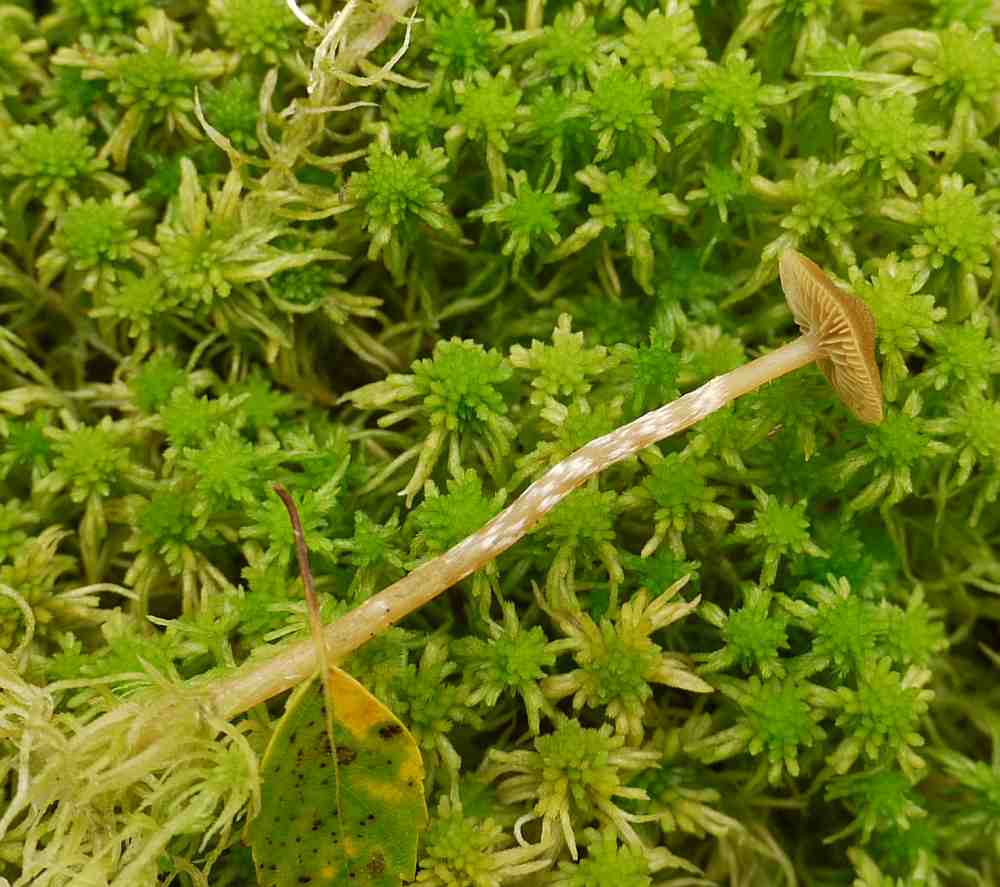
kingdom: Fungi
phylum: Basidiomycota
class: Agaricomycetes
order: Agaricales
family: Hymenogastraceae
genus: Galerina
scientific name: Galerina paludosa
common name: mose-hjelmhat
